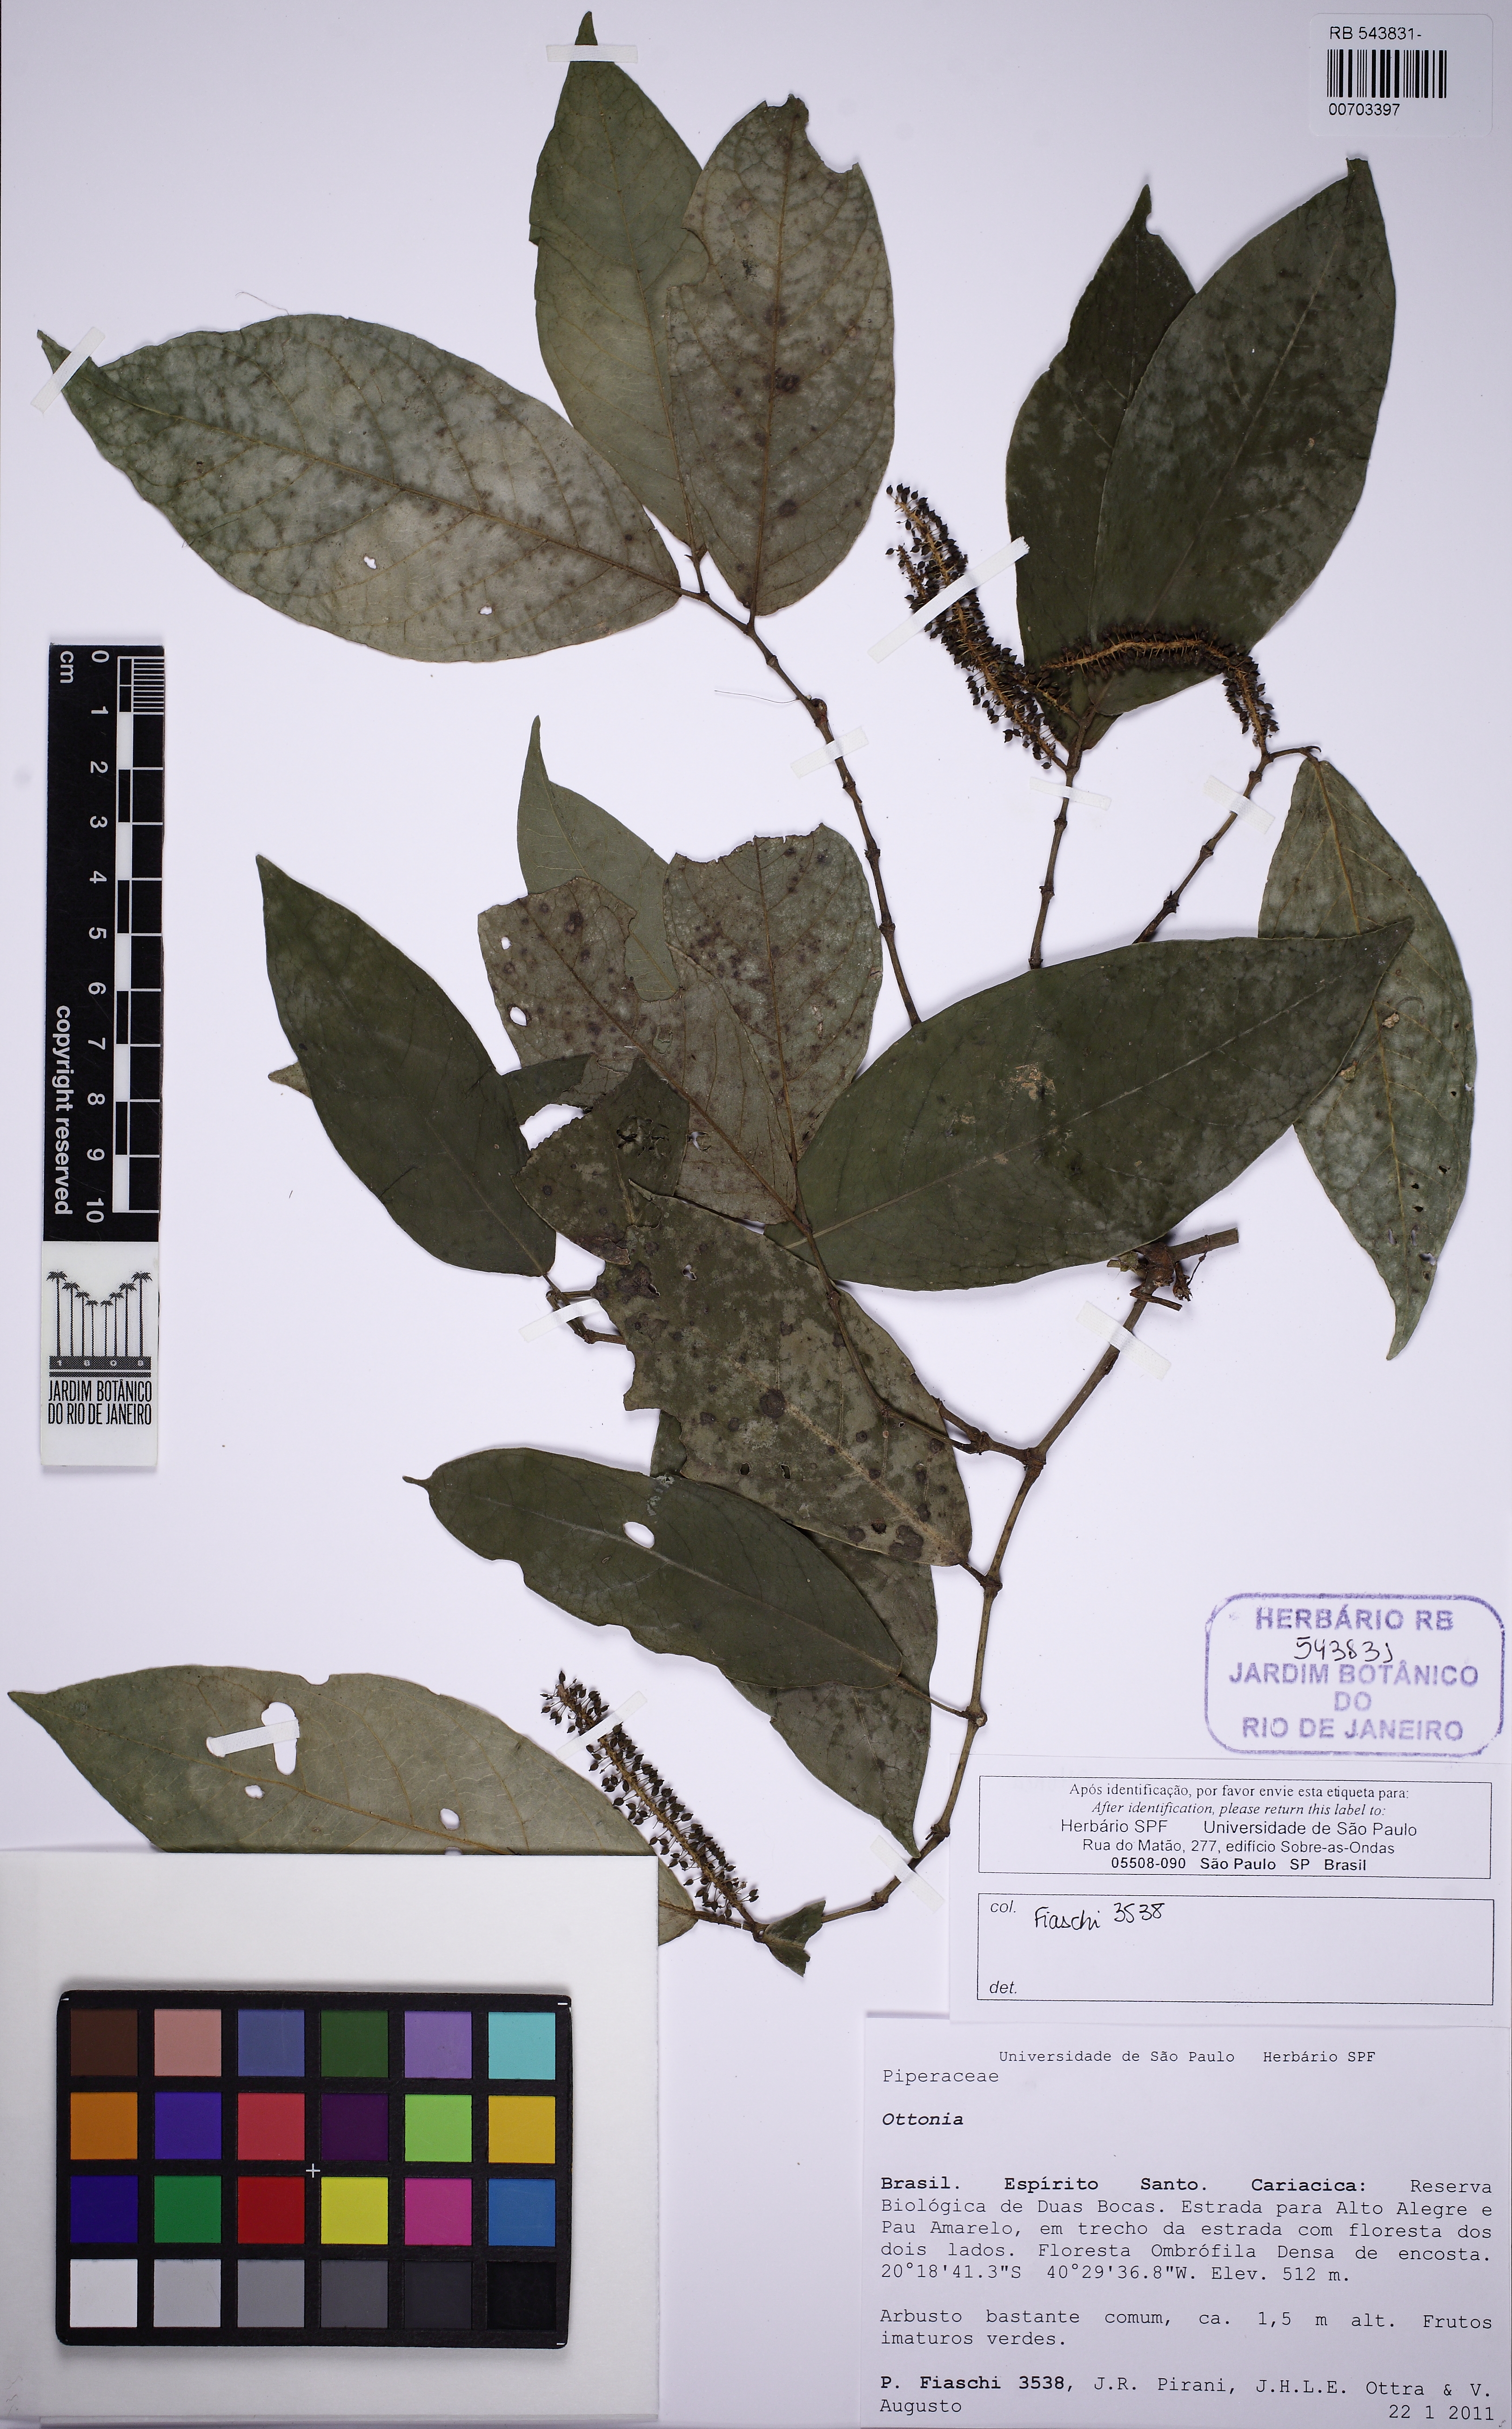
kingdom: Plantae
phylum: Tracheophyta
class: Magnoliopsida
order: Piperales
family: Piperaceae
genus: Piper
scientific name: Piper anisum
